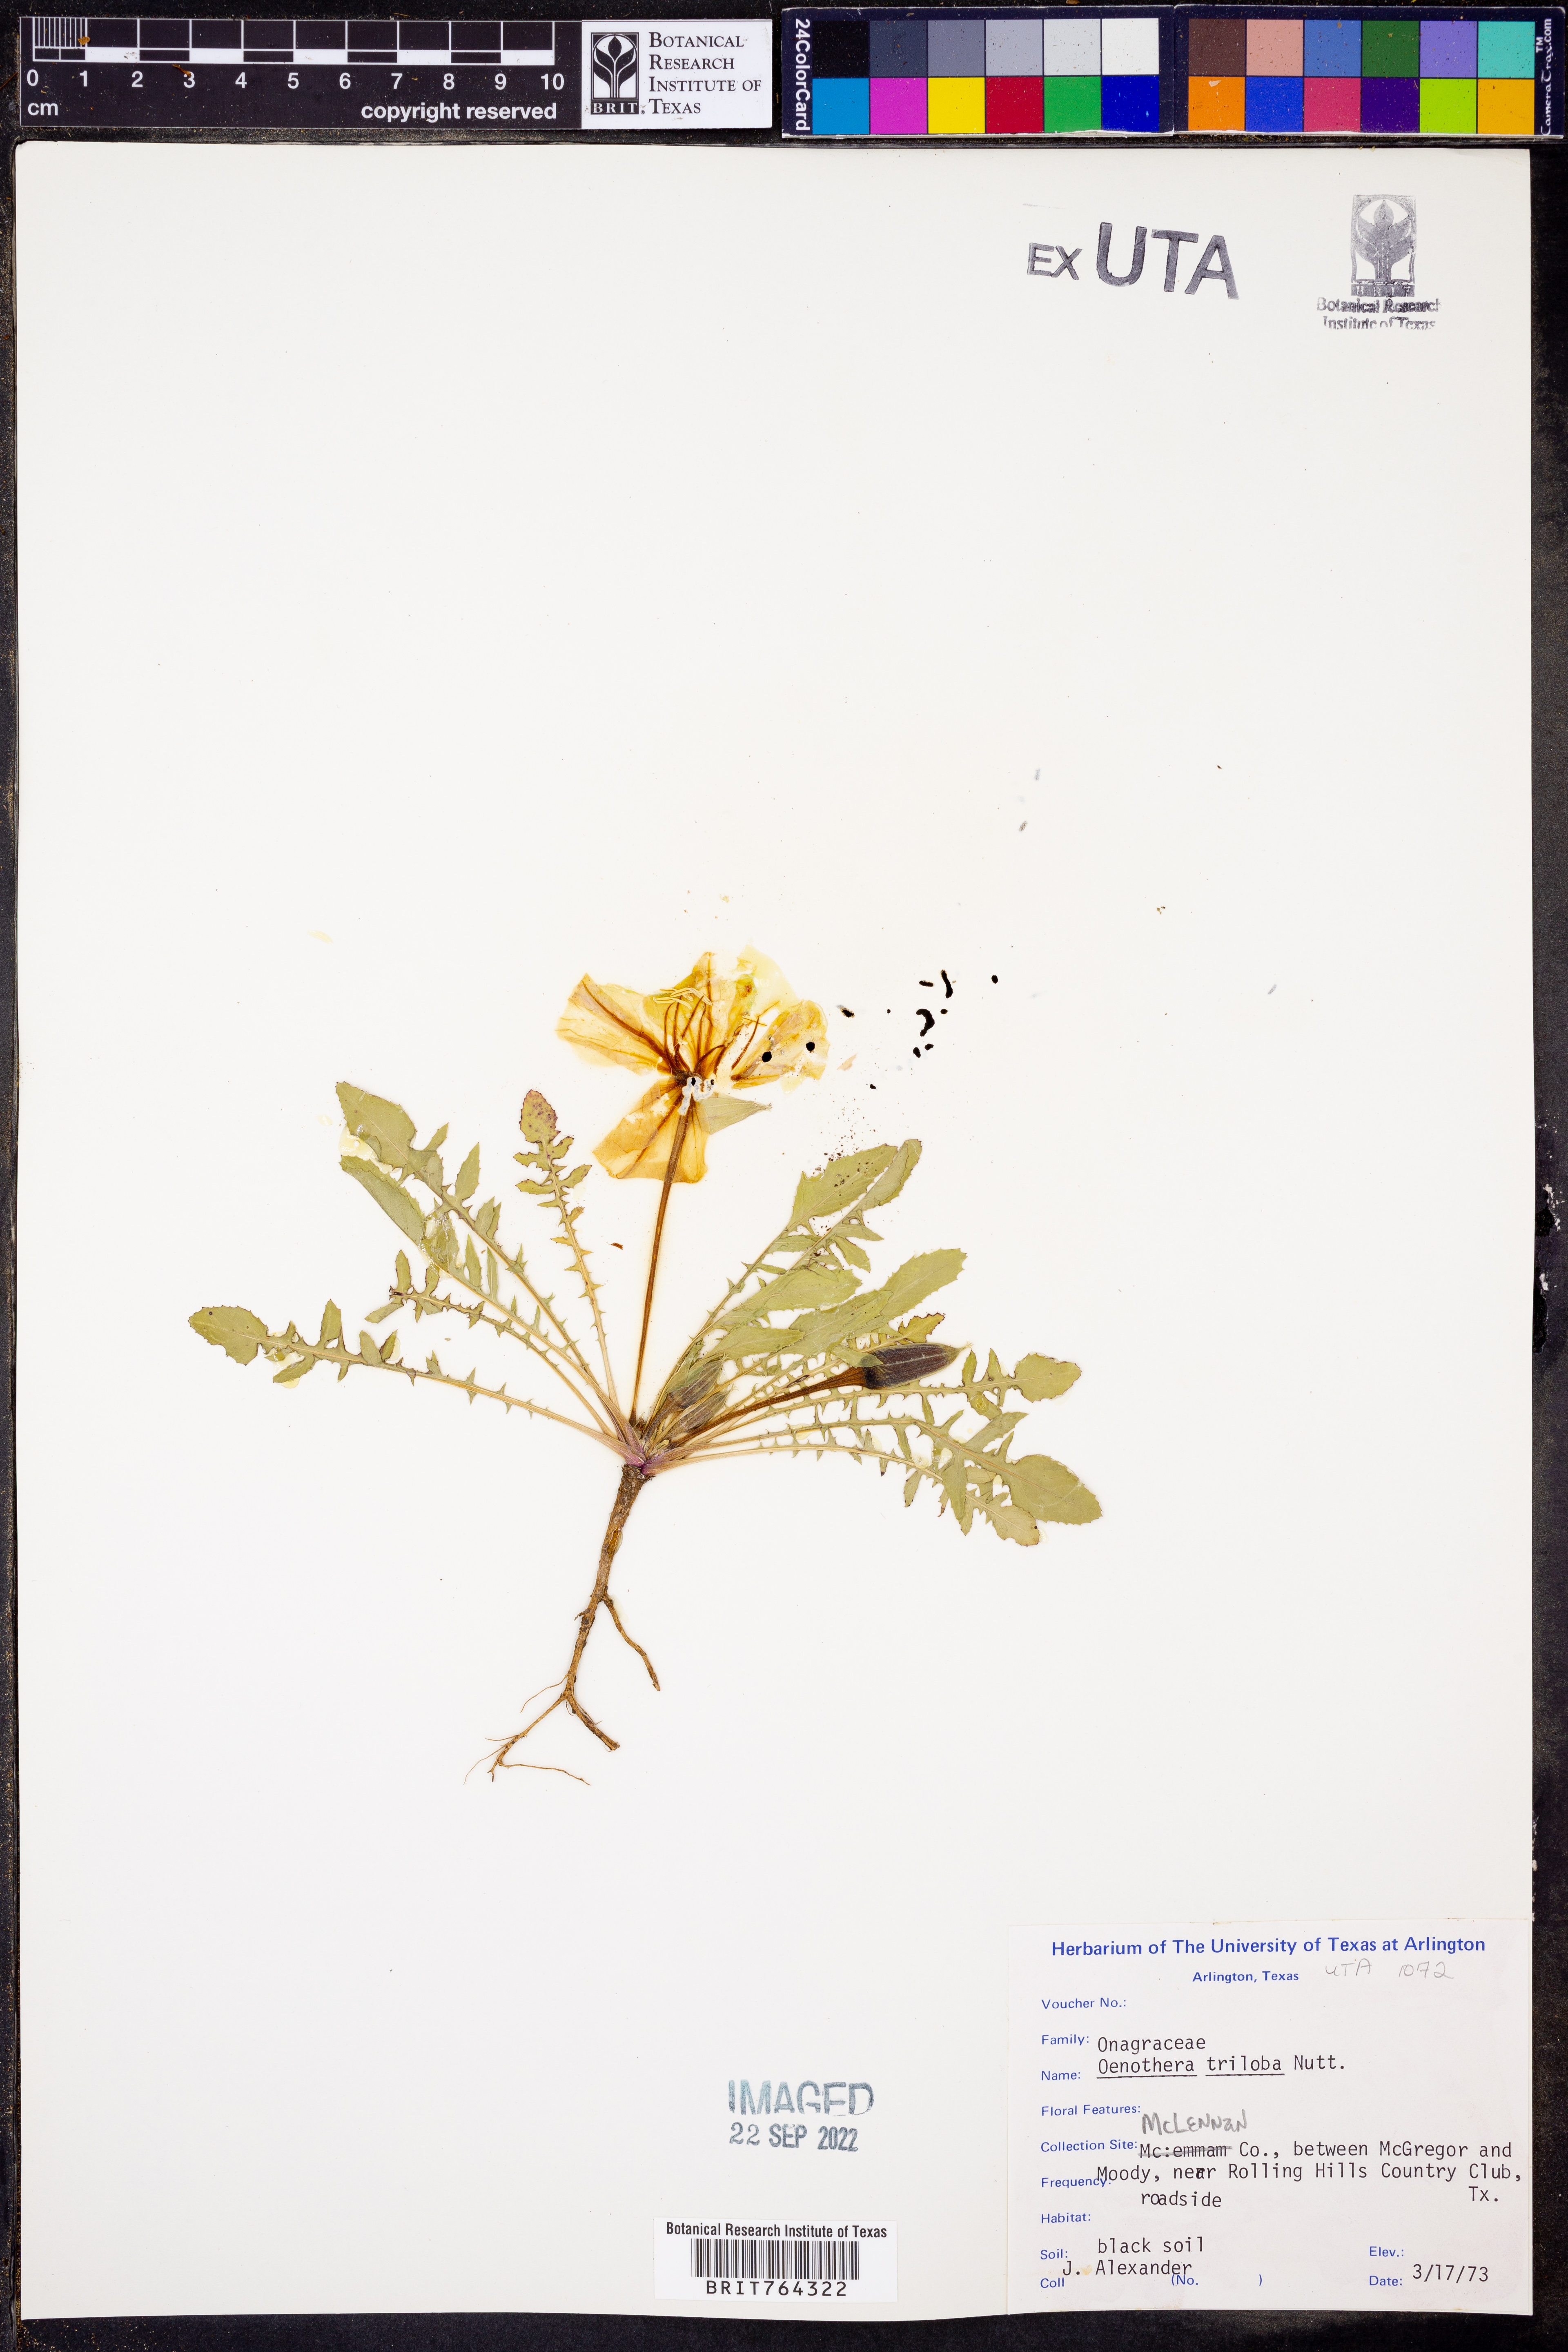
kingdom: Plantae
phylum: Tracheophyta
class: Magnoliopsida
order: Myrtales
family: Onagraceae
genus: Oenothera
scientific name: Oenothera triloba
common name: Sessile evening-primrose
